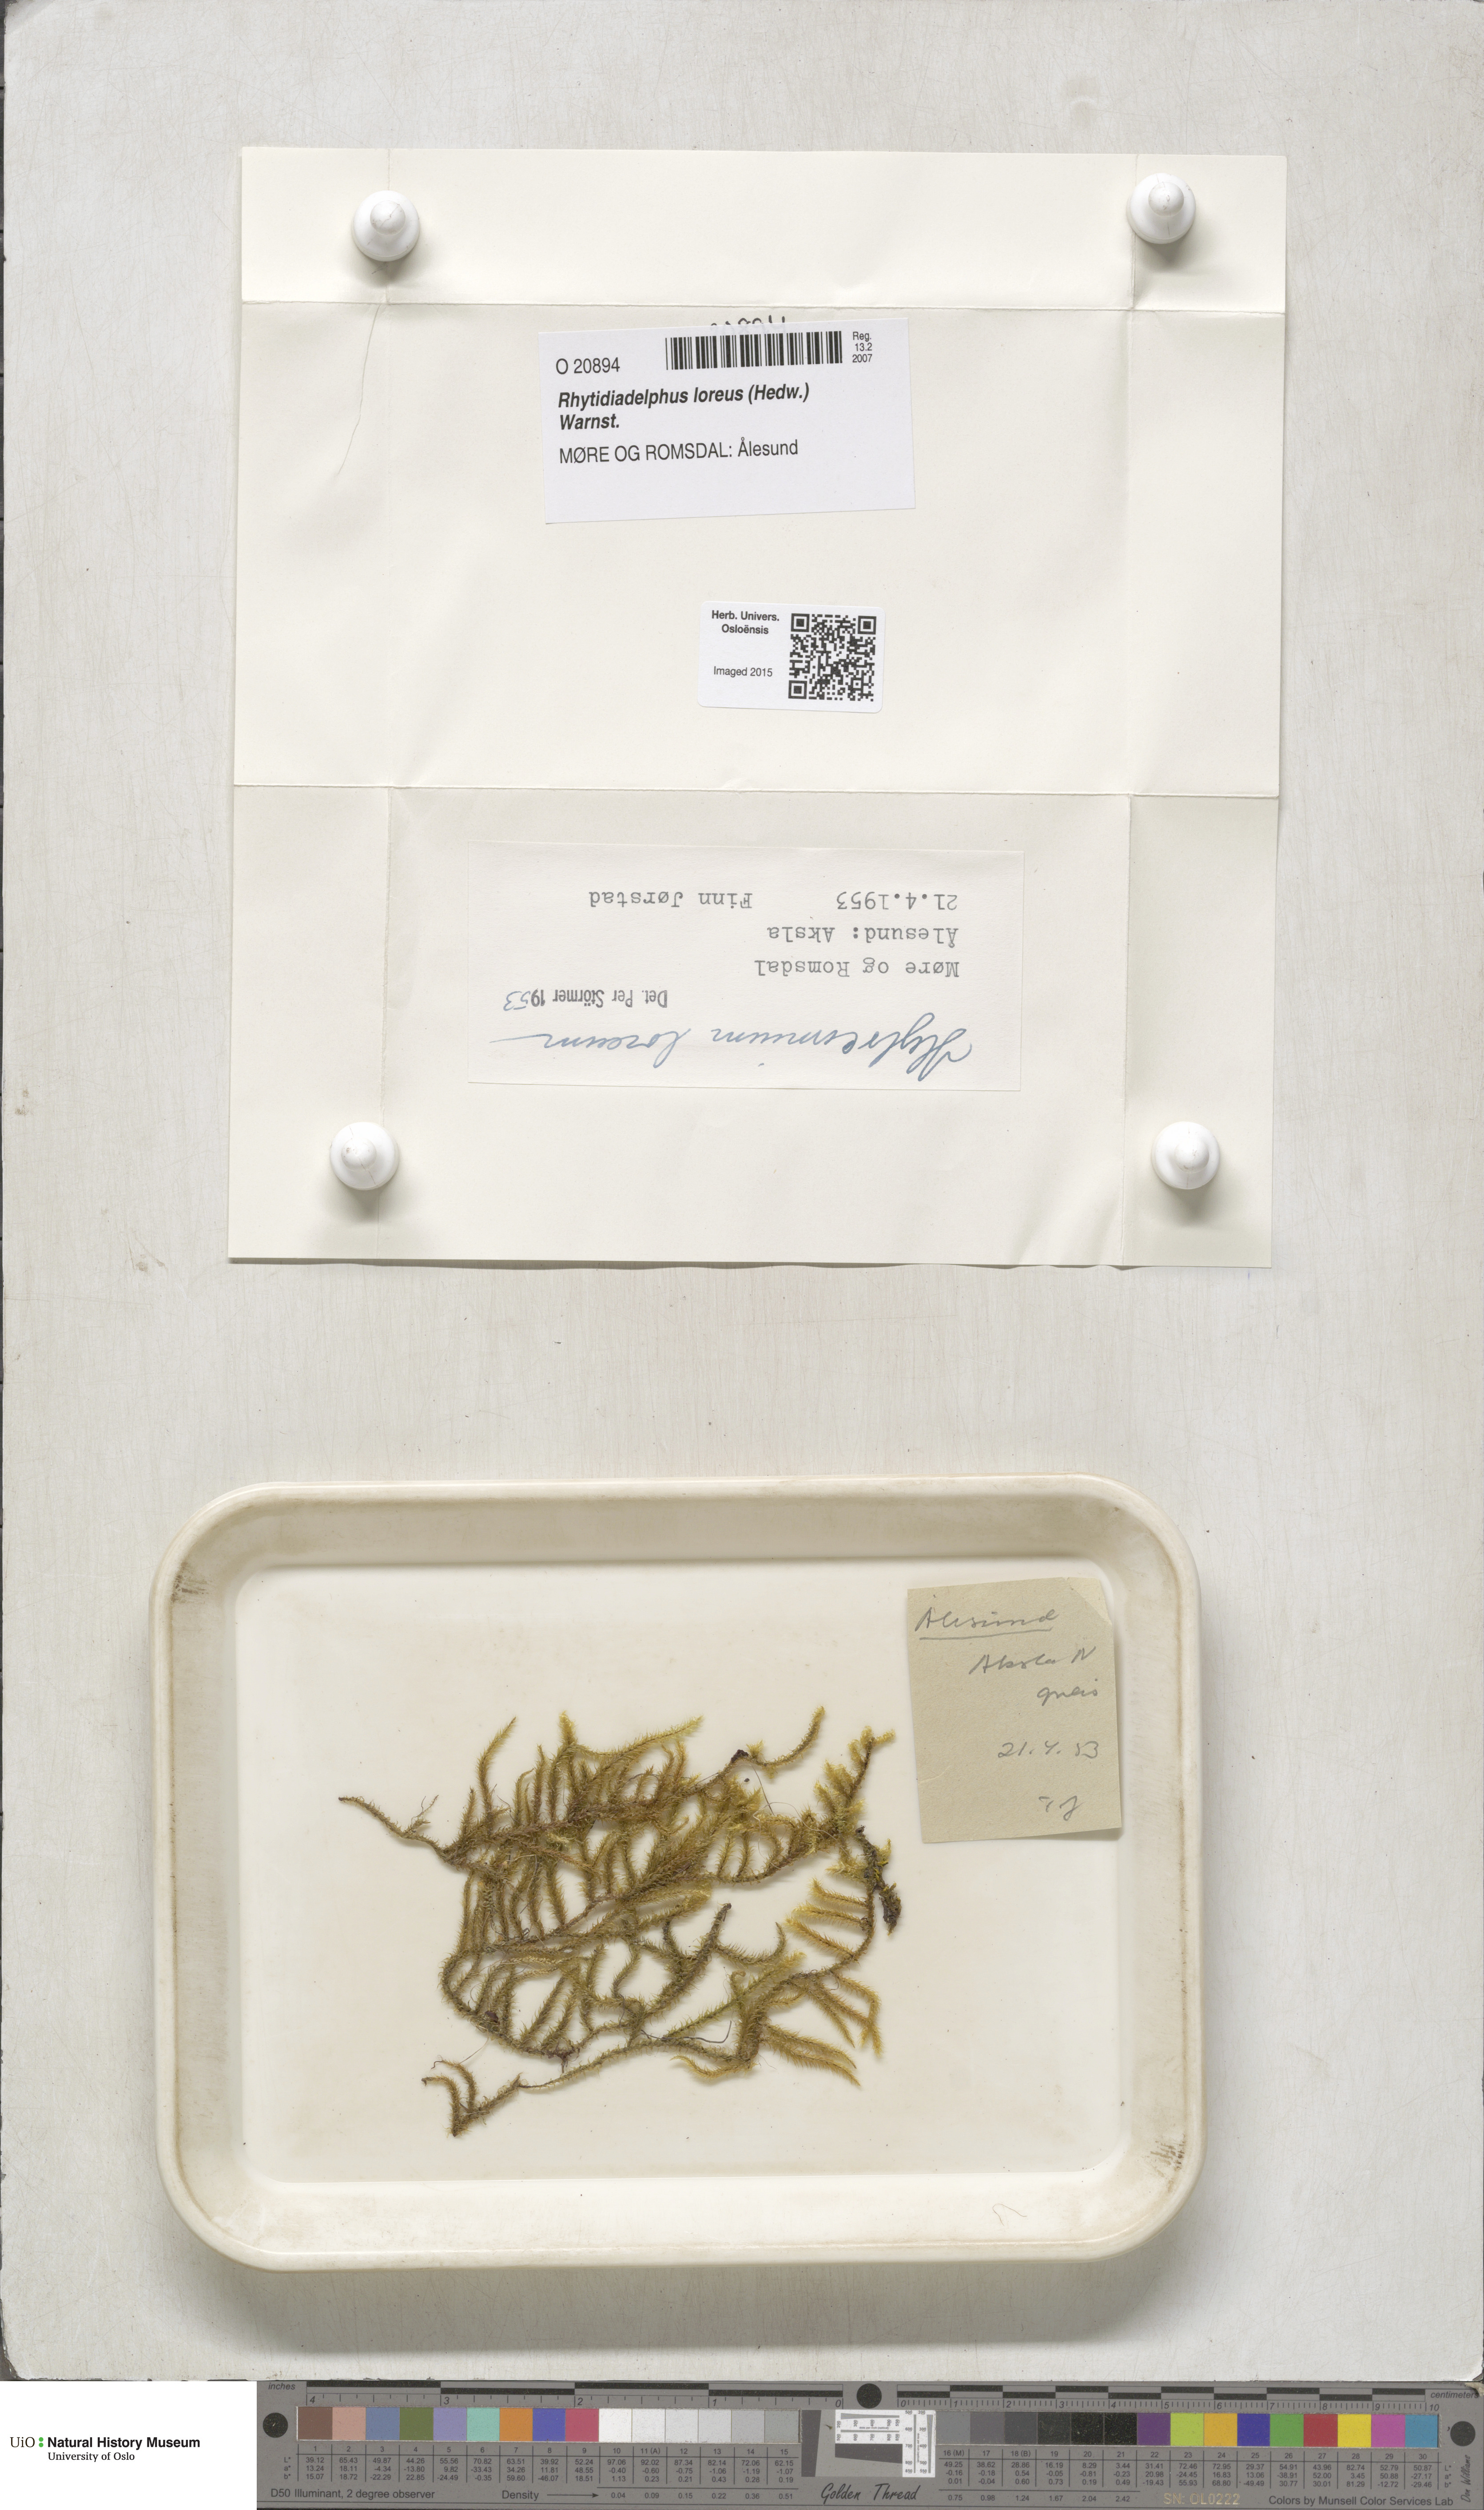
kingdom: Plantae
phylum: Bryophyta
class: Bryopsida
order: Hypnales
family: Hylocomiaceae
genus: Rhytidiadelphus
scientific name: Rhytidiadelphus loreus
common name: Lanky moss
